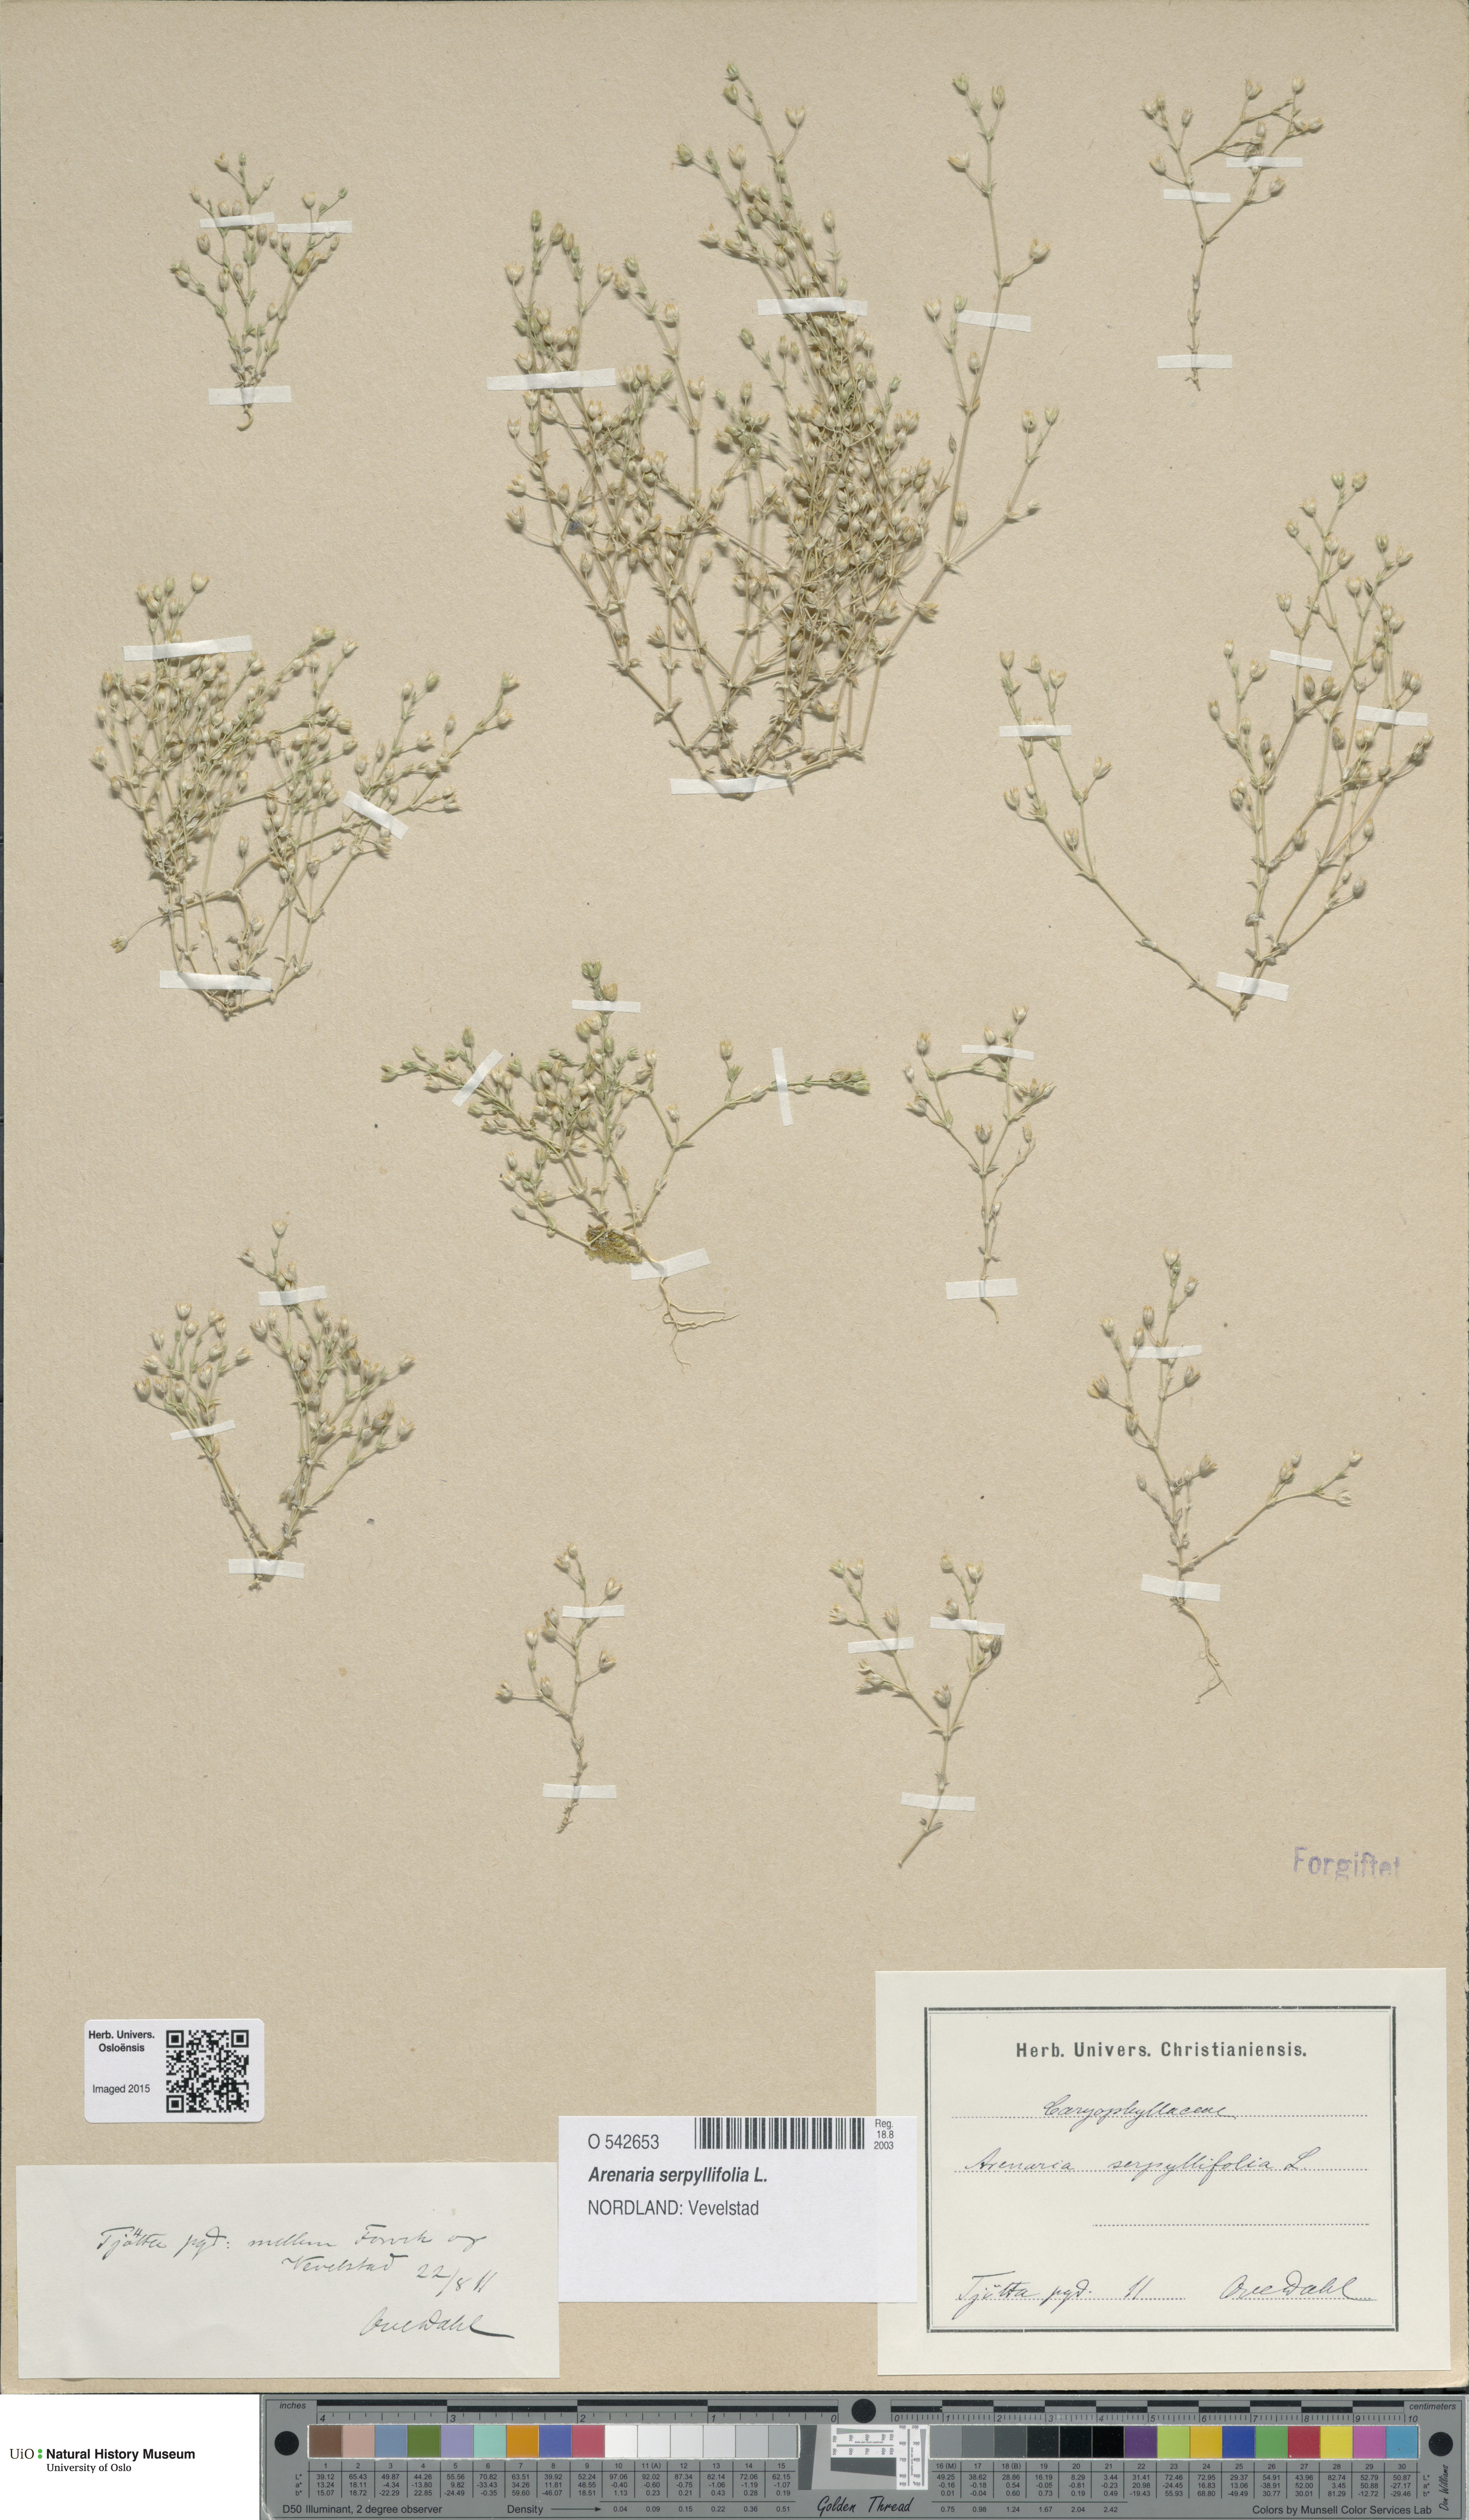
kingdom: Plantae
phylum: Tracheophyta
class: Magnoliopsida
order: Caryophyllales
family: Caryophyllaceae
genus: Arenaria
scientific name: Arenaria serpyllifolia
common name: Thyme-leaved sandwort
